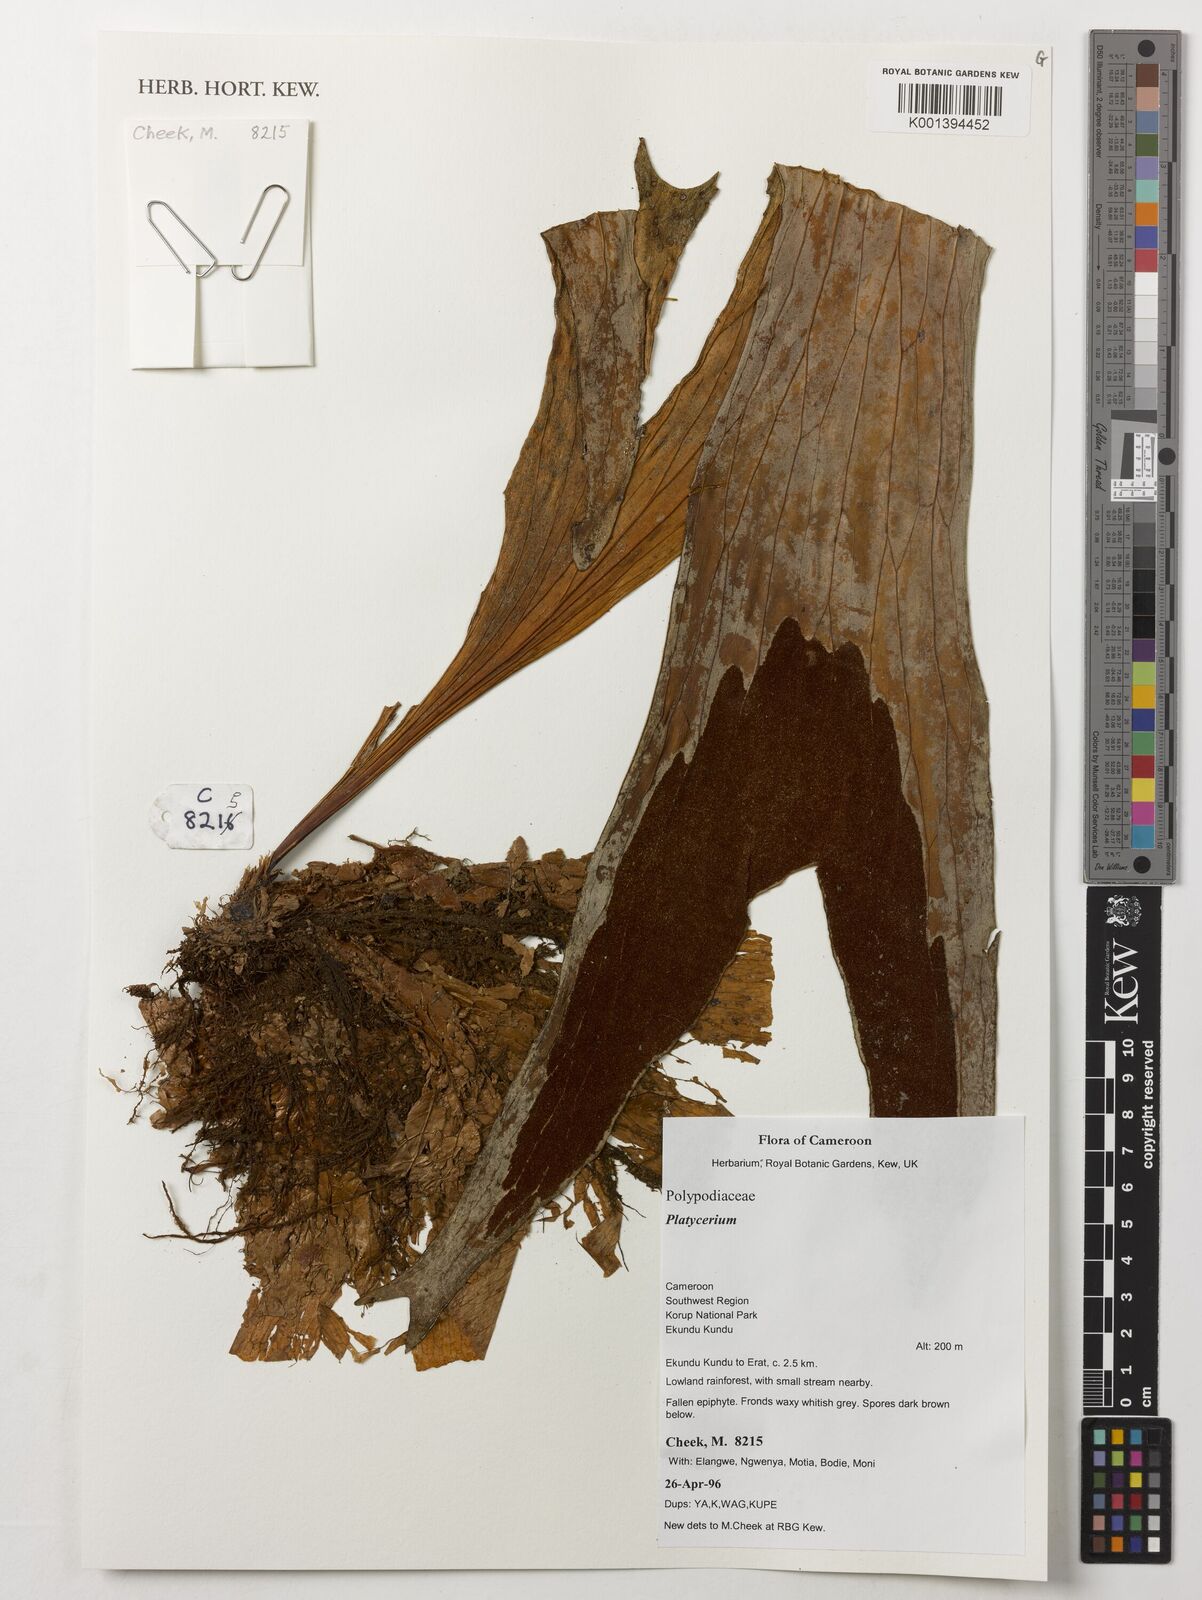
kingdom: Plantae
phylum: Tracheophyta
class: Polypodiopsida
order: Polypodiales
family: Polypodiaceae
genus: Platycerium
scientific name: Platycerium
